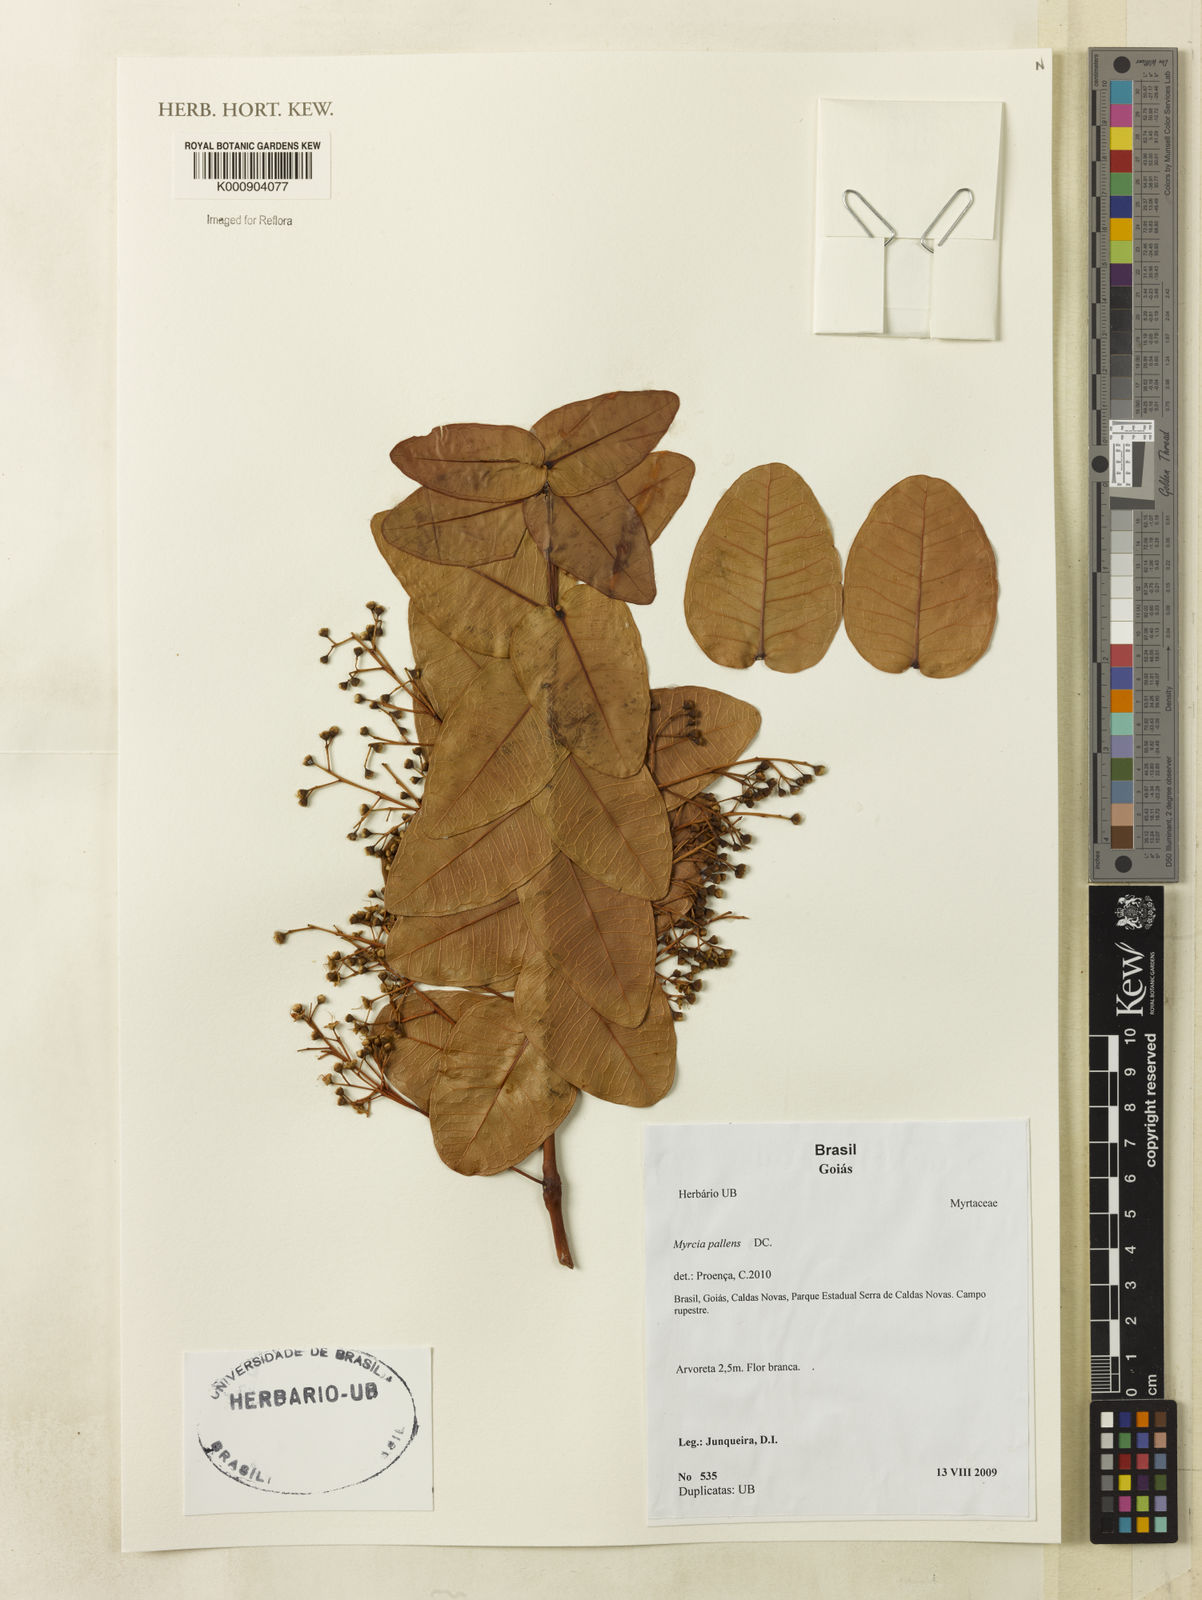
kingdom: Plantae
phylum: Tracheophyta
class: Magnoliopsida
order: Myrtales
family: Myrtaceae
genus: Myrcia
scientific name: Myrcia guianensis
